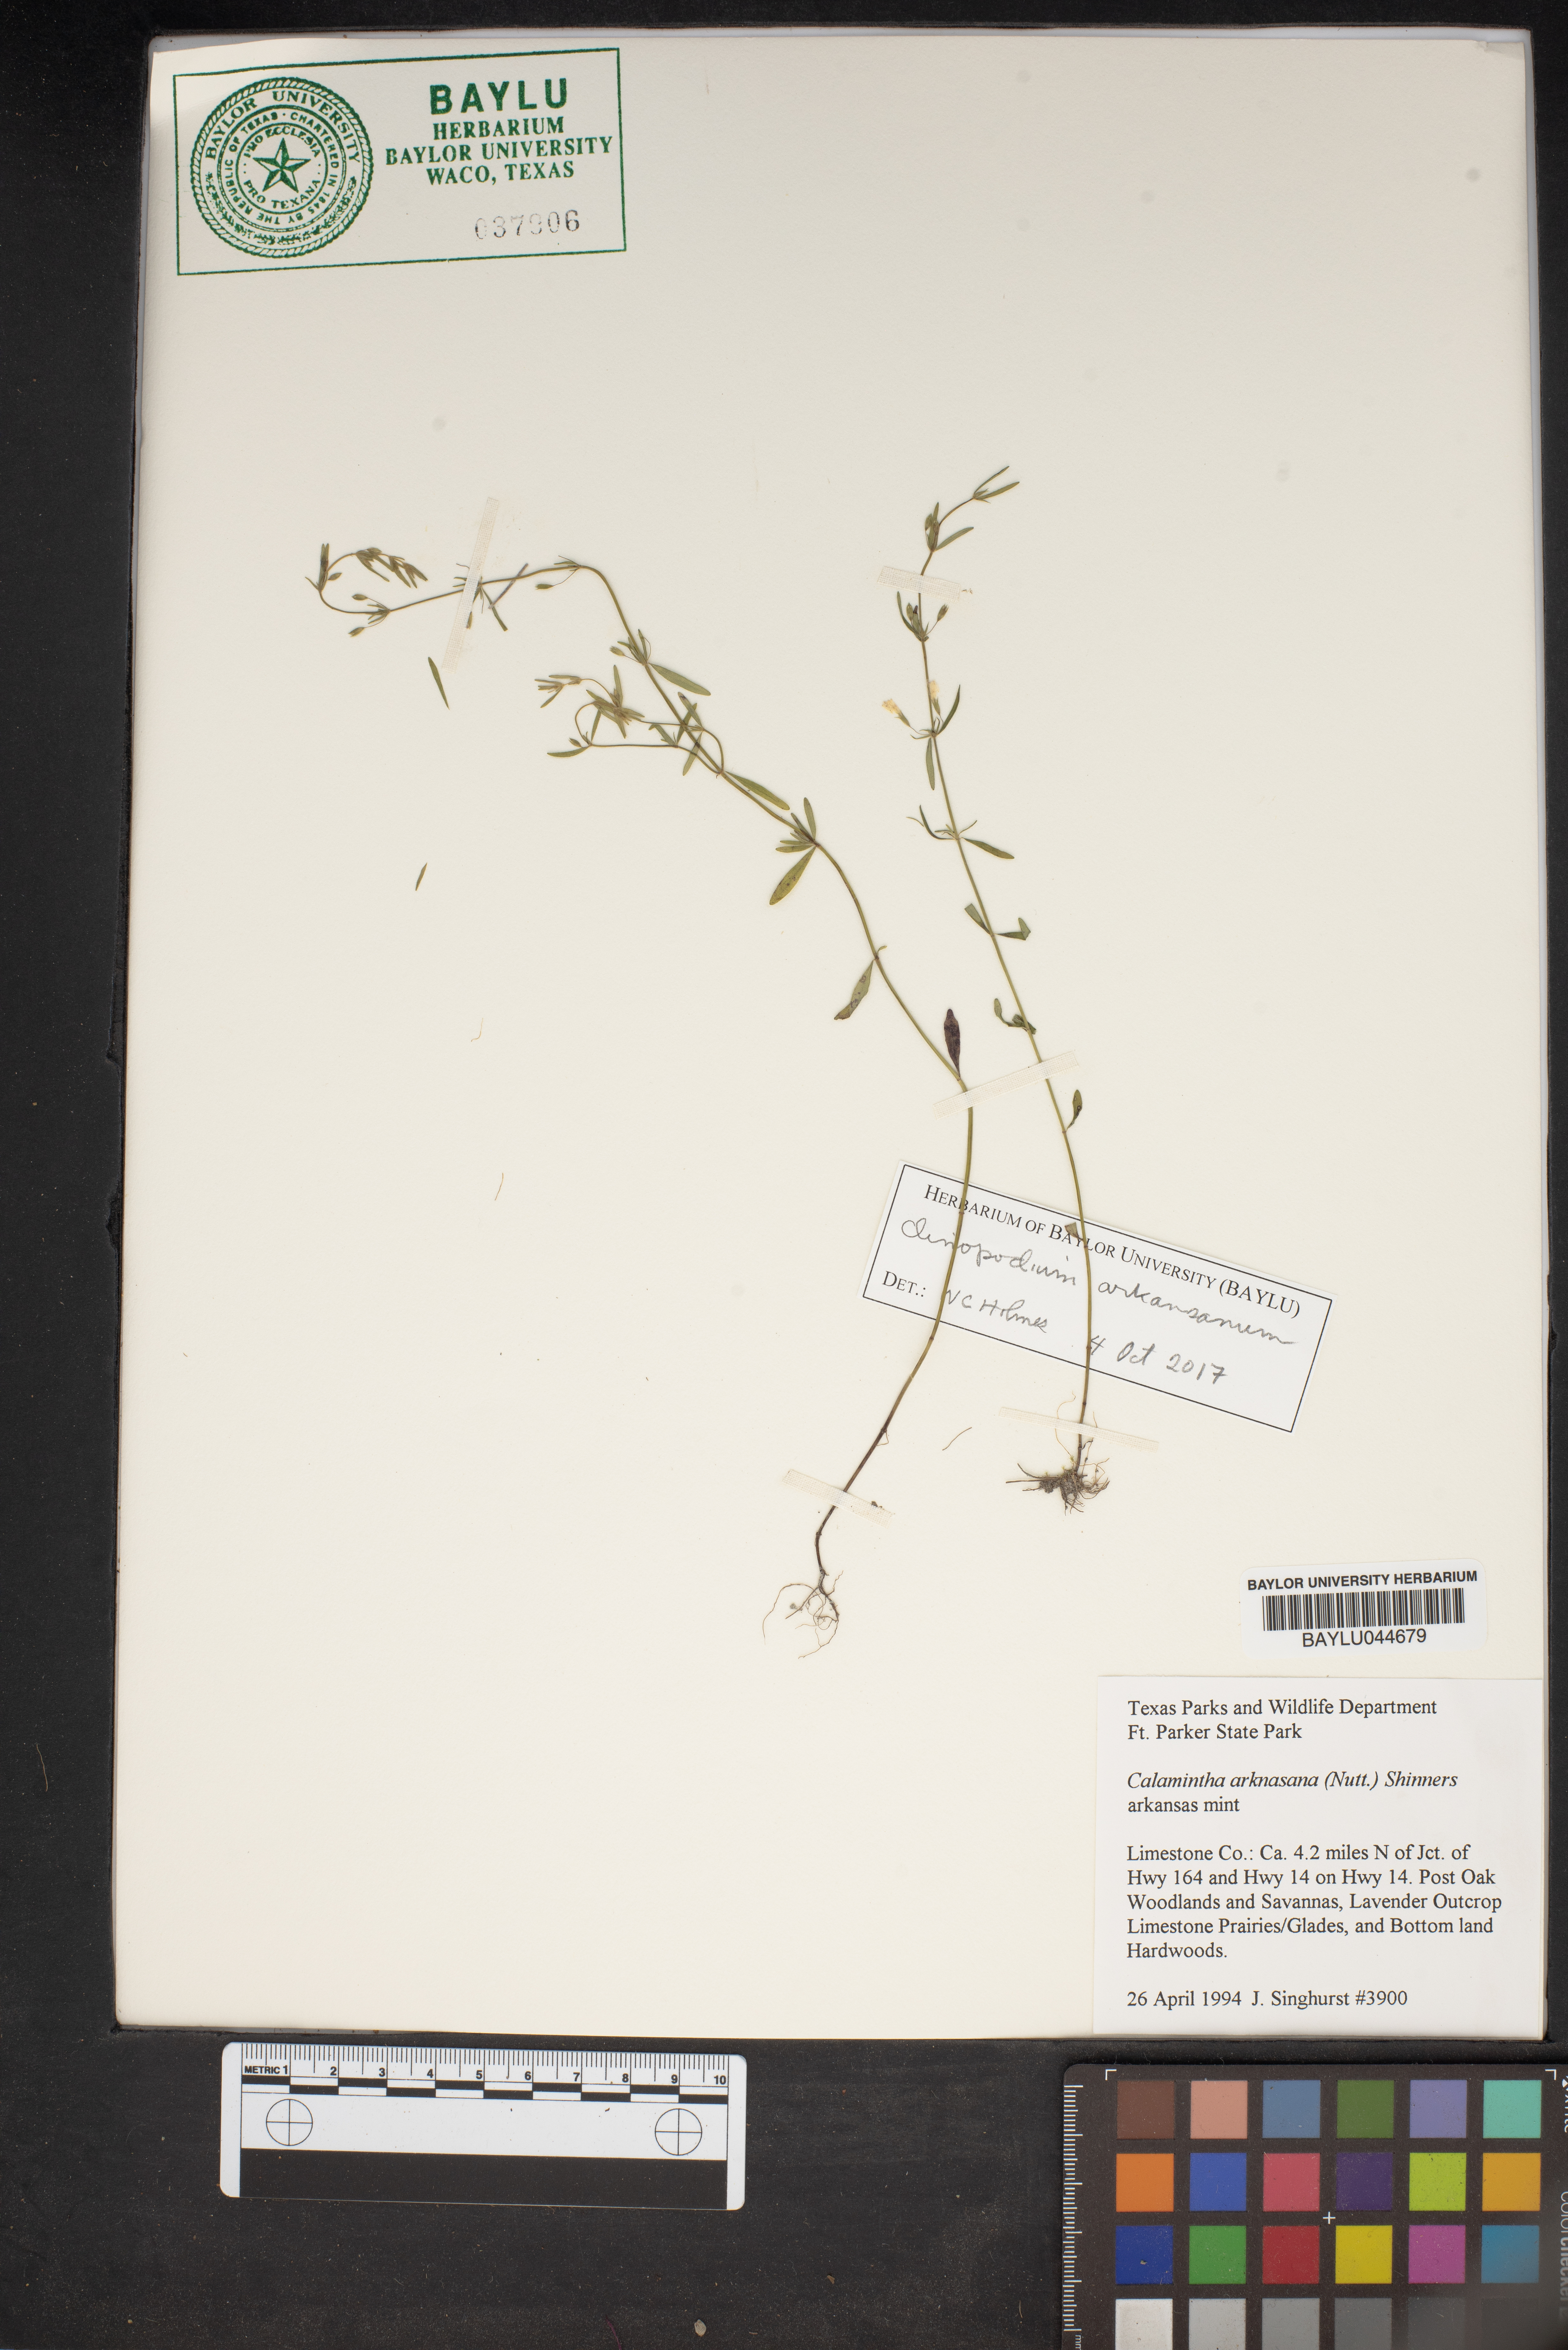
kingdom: Plantae
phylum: Tracheophyta
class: Magnoliopsida
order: Lamiales
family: Lamiaceae
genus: Clinopodium
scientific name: Clinopodium arkansanum
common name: Limestone calamint
